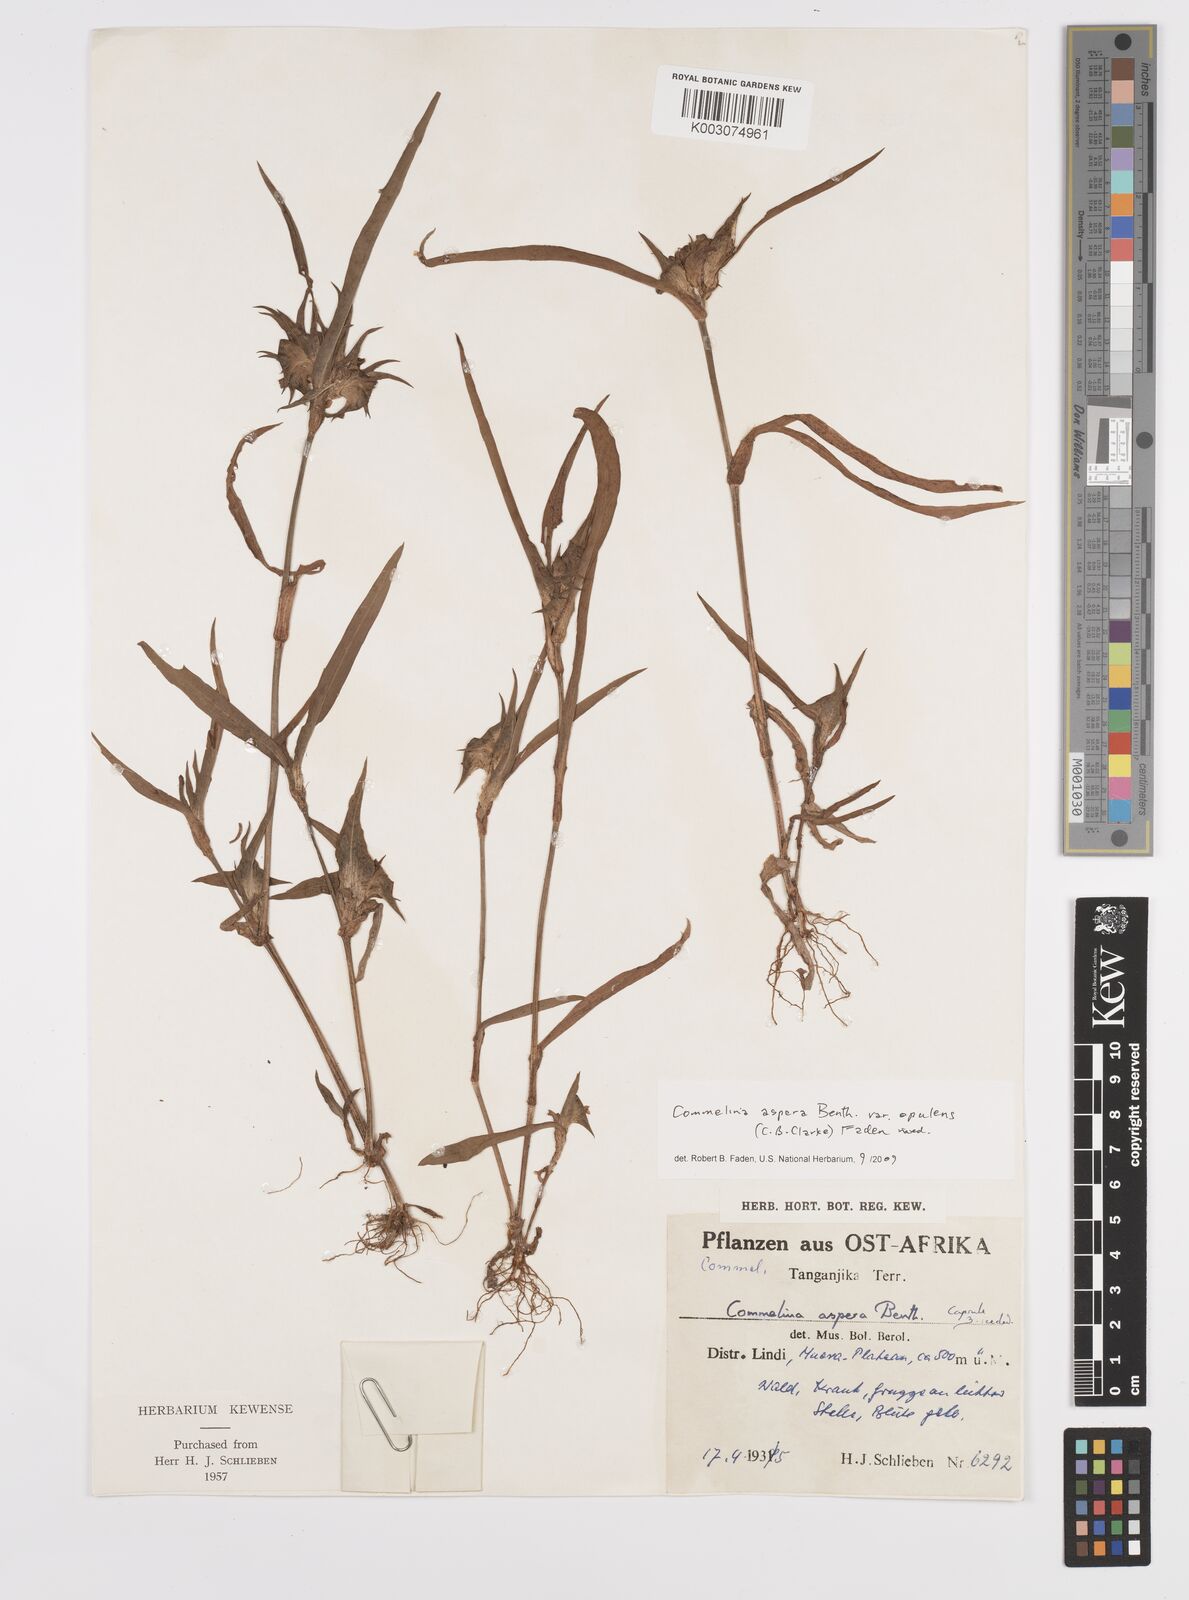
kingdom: Plantae
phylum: Tracheophyta
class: Liliopsida
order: Commelinales
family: Commelinaceae
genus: Commelina
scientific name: Commelina aspera
